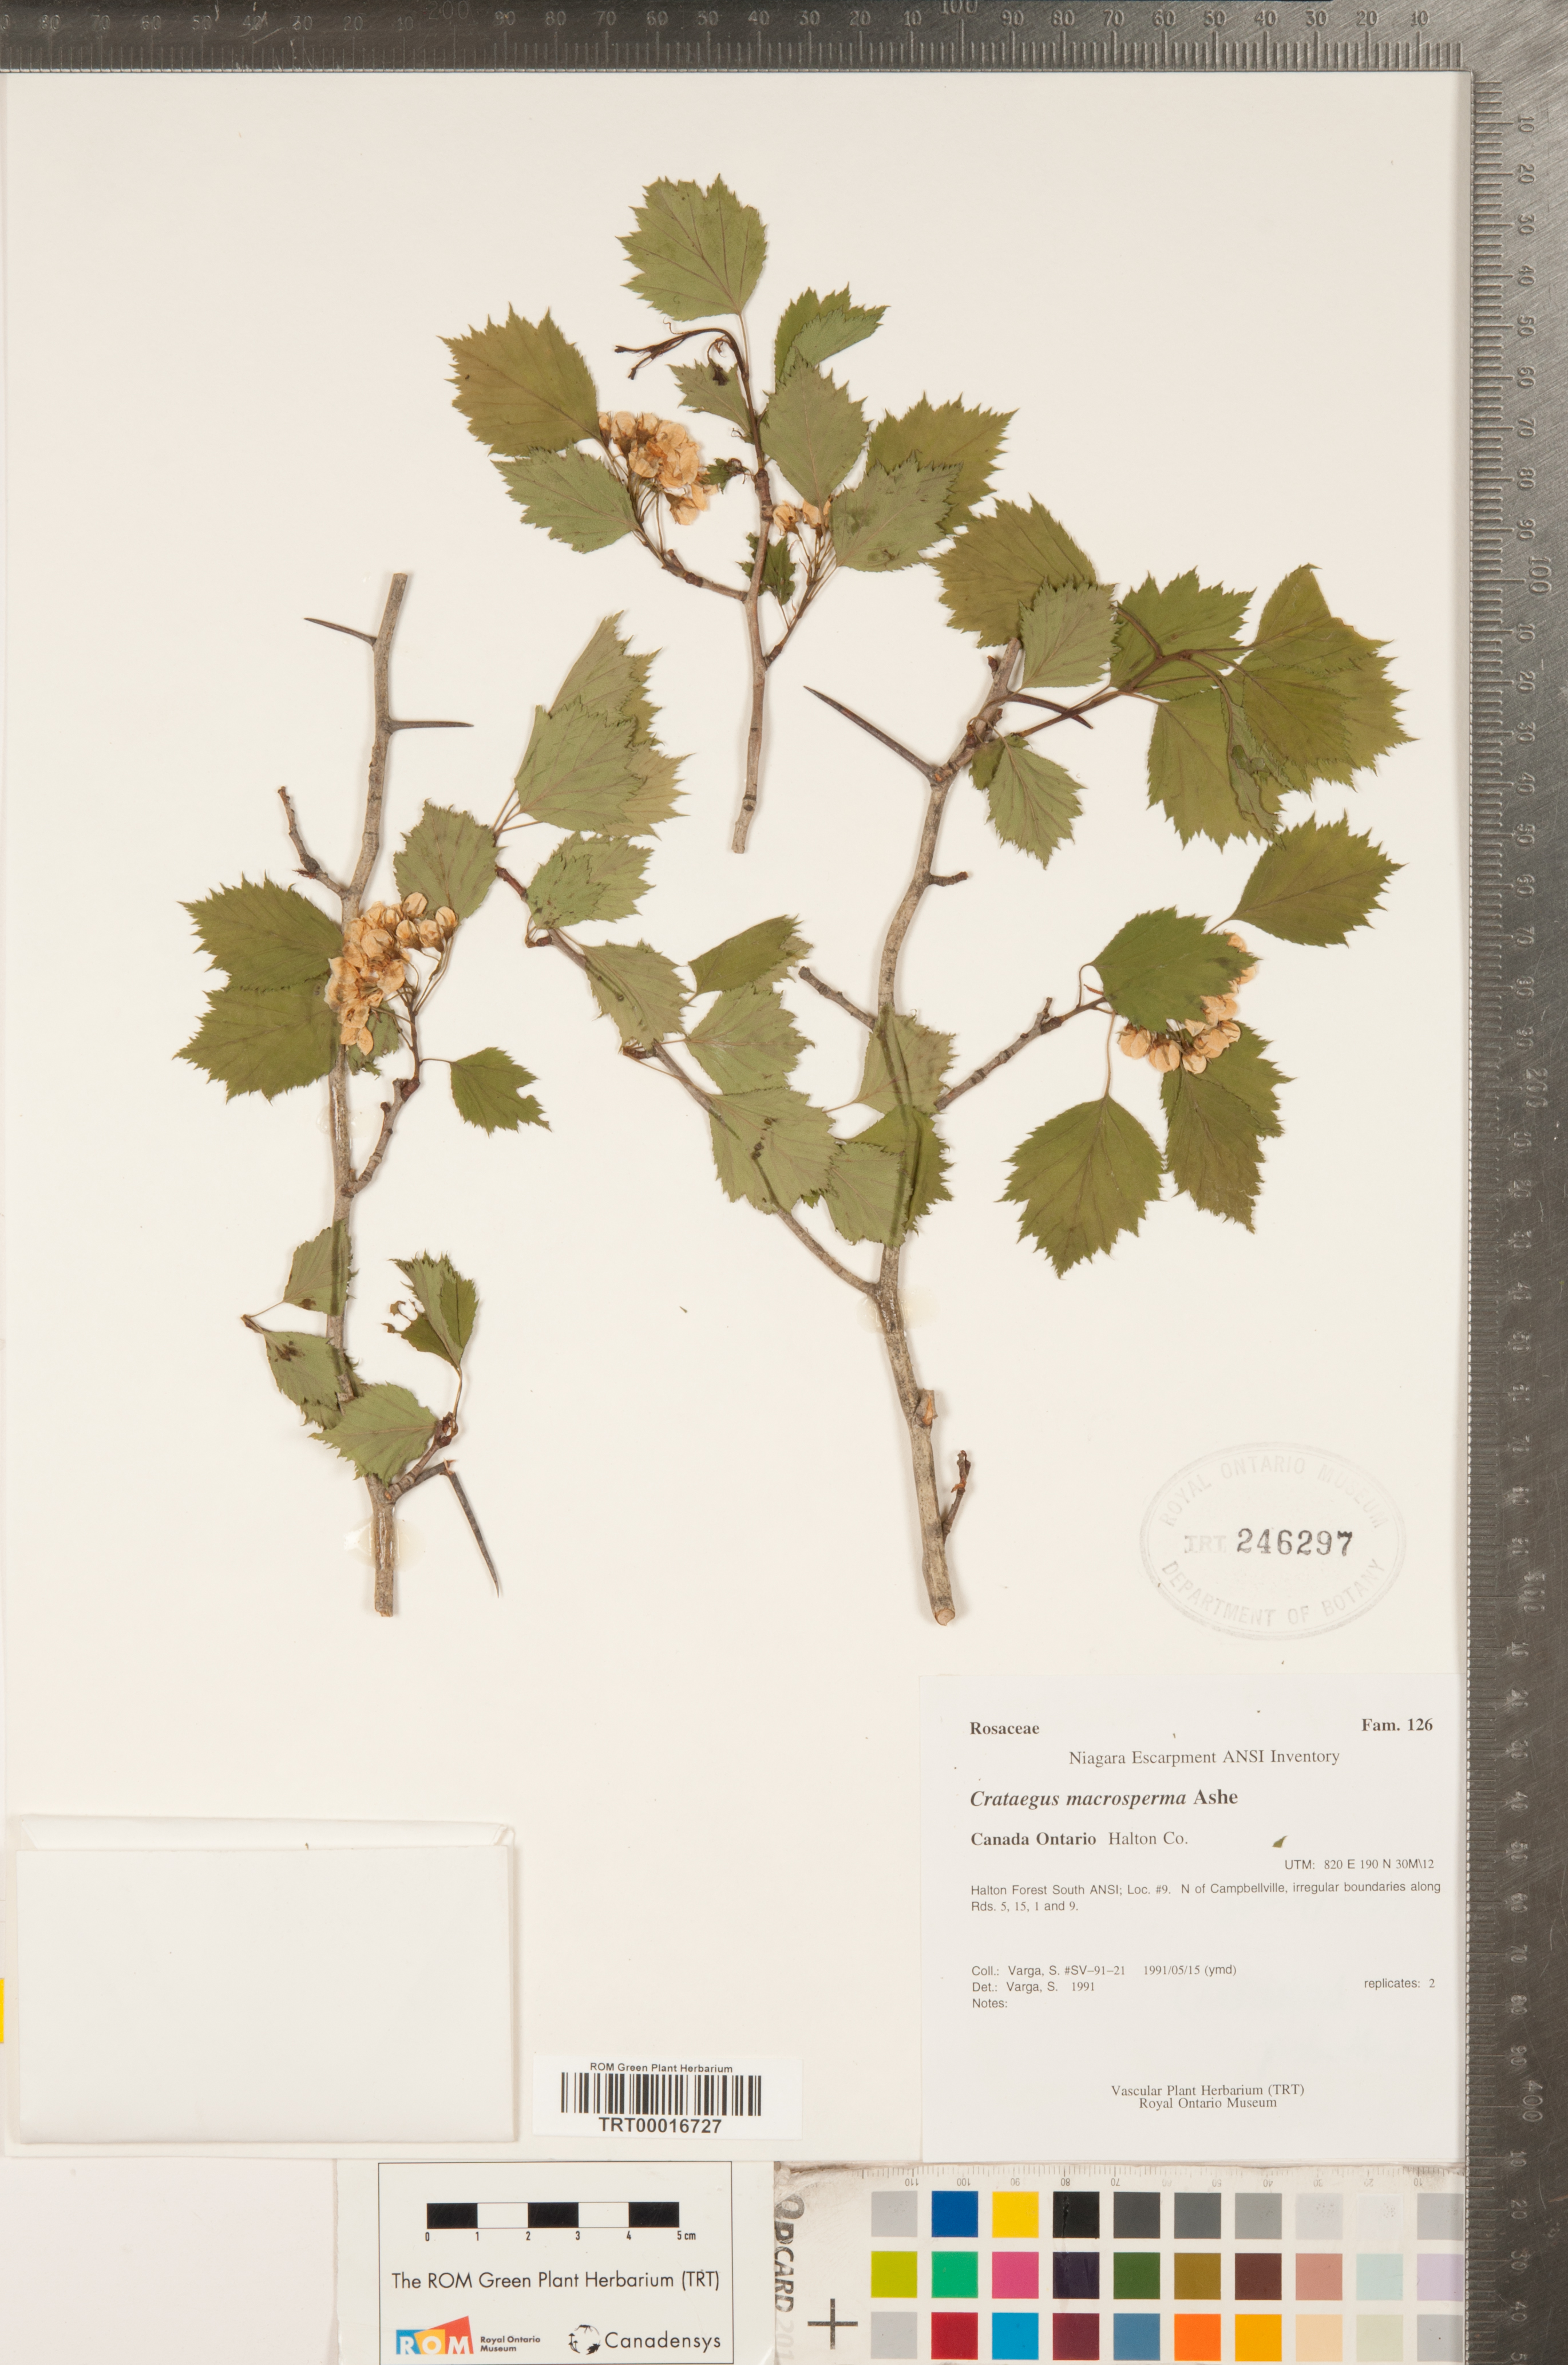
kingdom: Plantae
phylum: Tracheophyta
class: Magnoliopsida
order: Rosales
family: Rosaceae
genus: Crataegus
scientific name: Crataegus macrosperma
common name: Variable hawthorn
